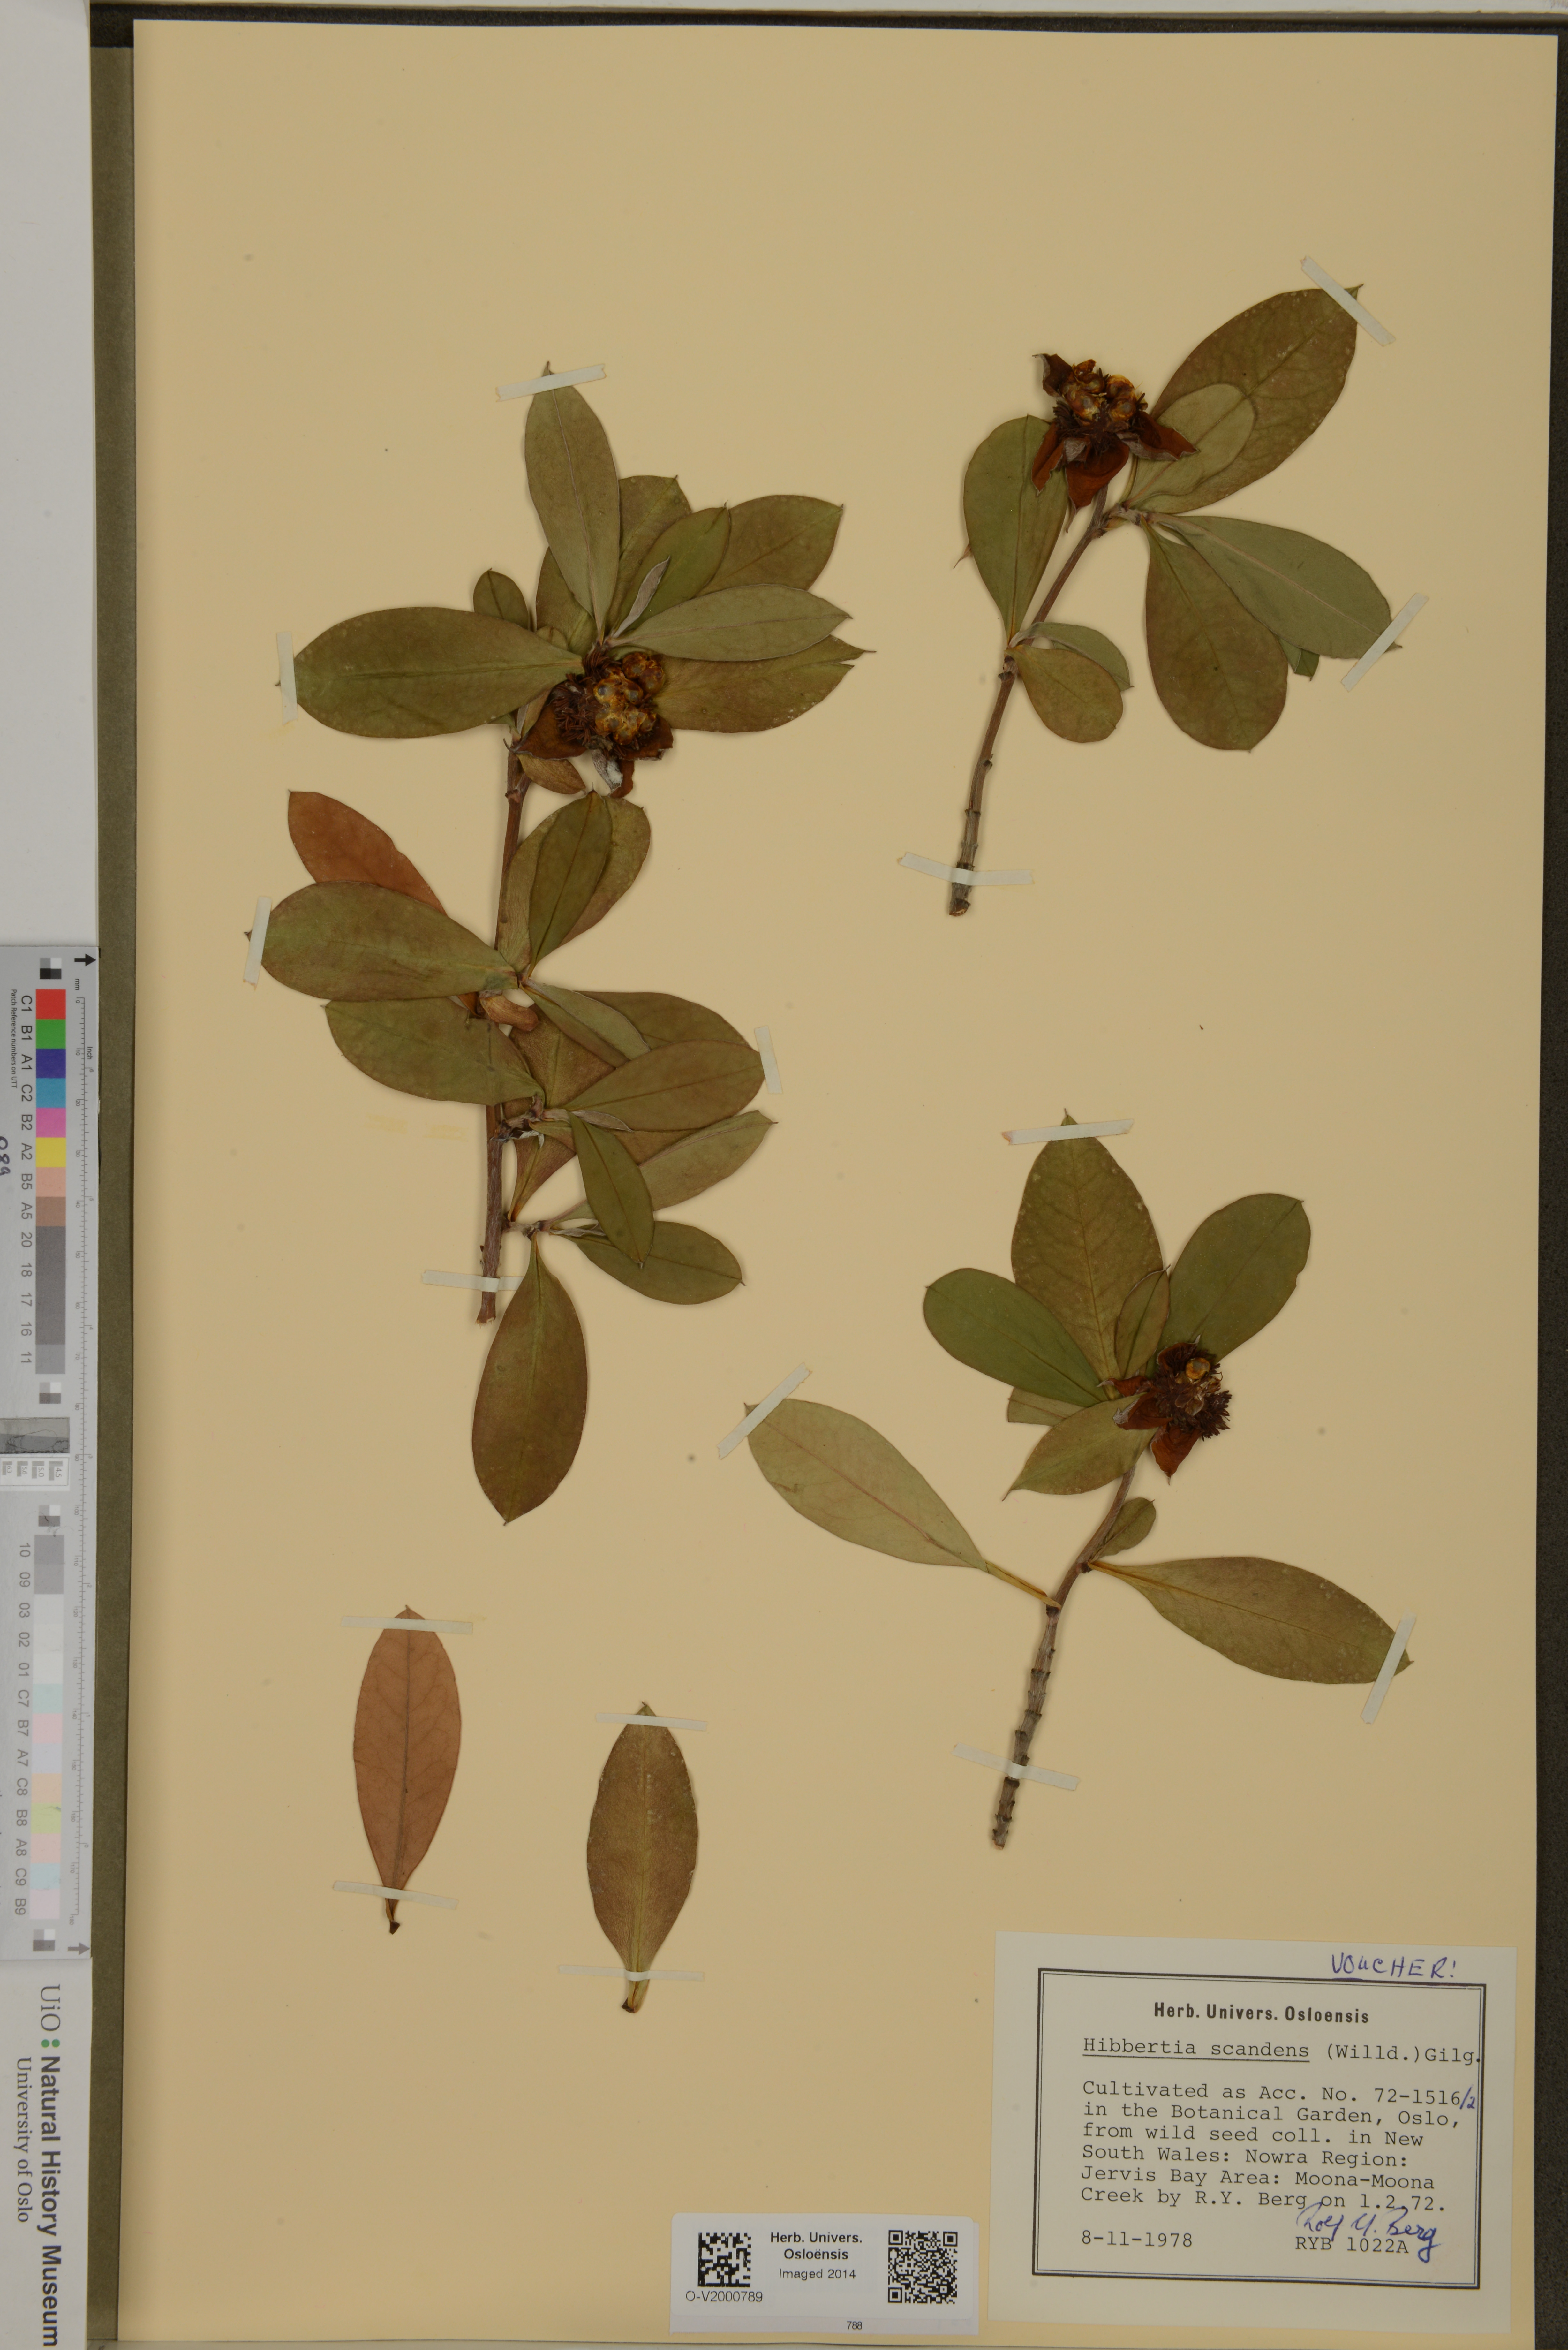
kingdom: Plantae
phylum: Tracheophyta
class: Magnoliopsida
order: Dilleniales
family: Dilleniaceae
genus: Hibbertia
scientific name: Hibbertia scandens
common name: Climbing guinea-flower
